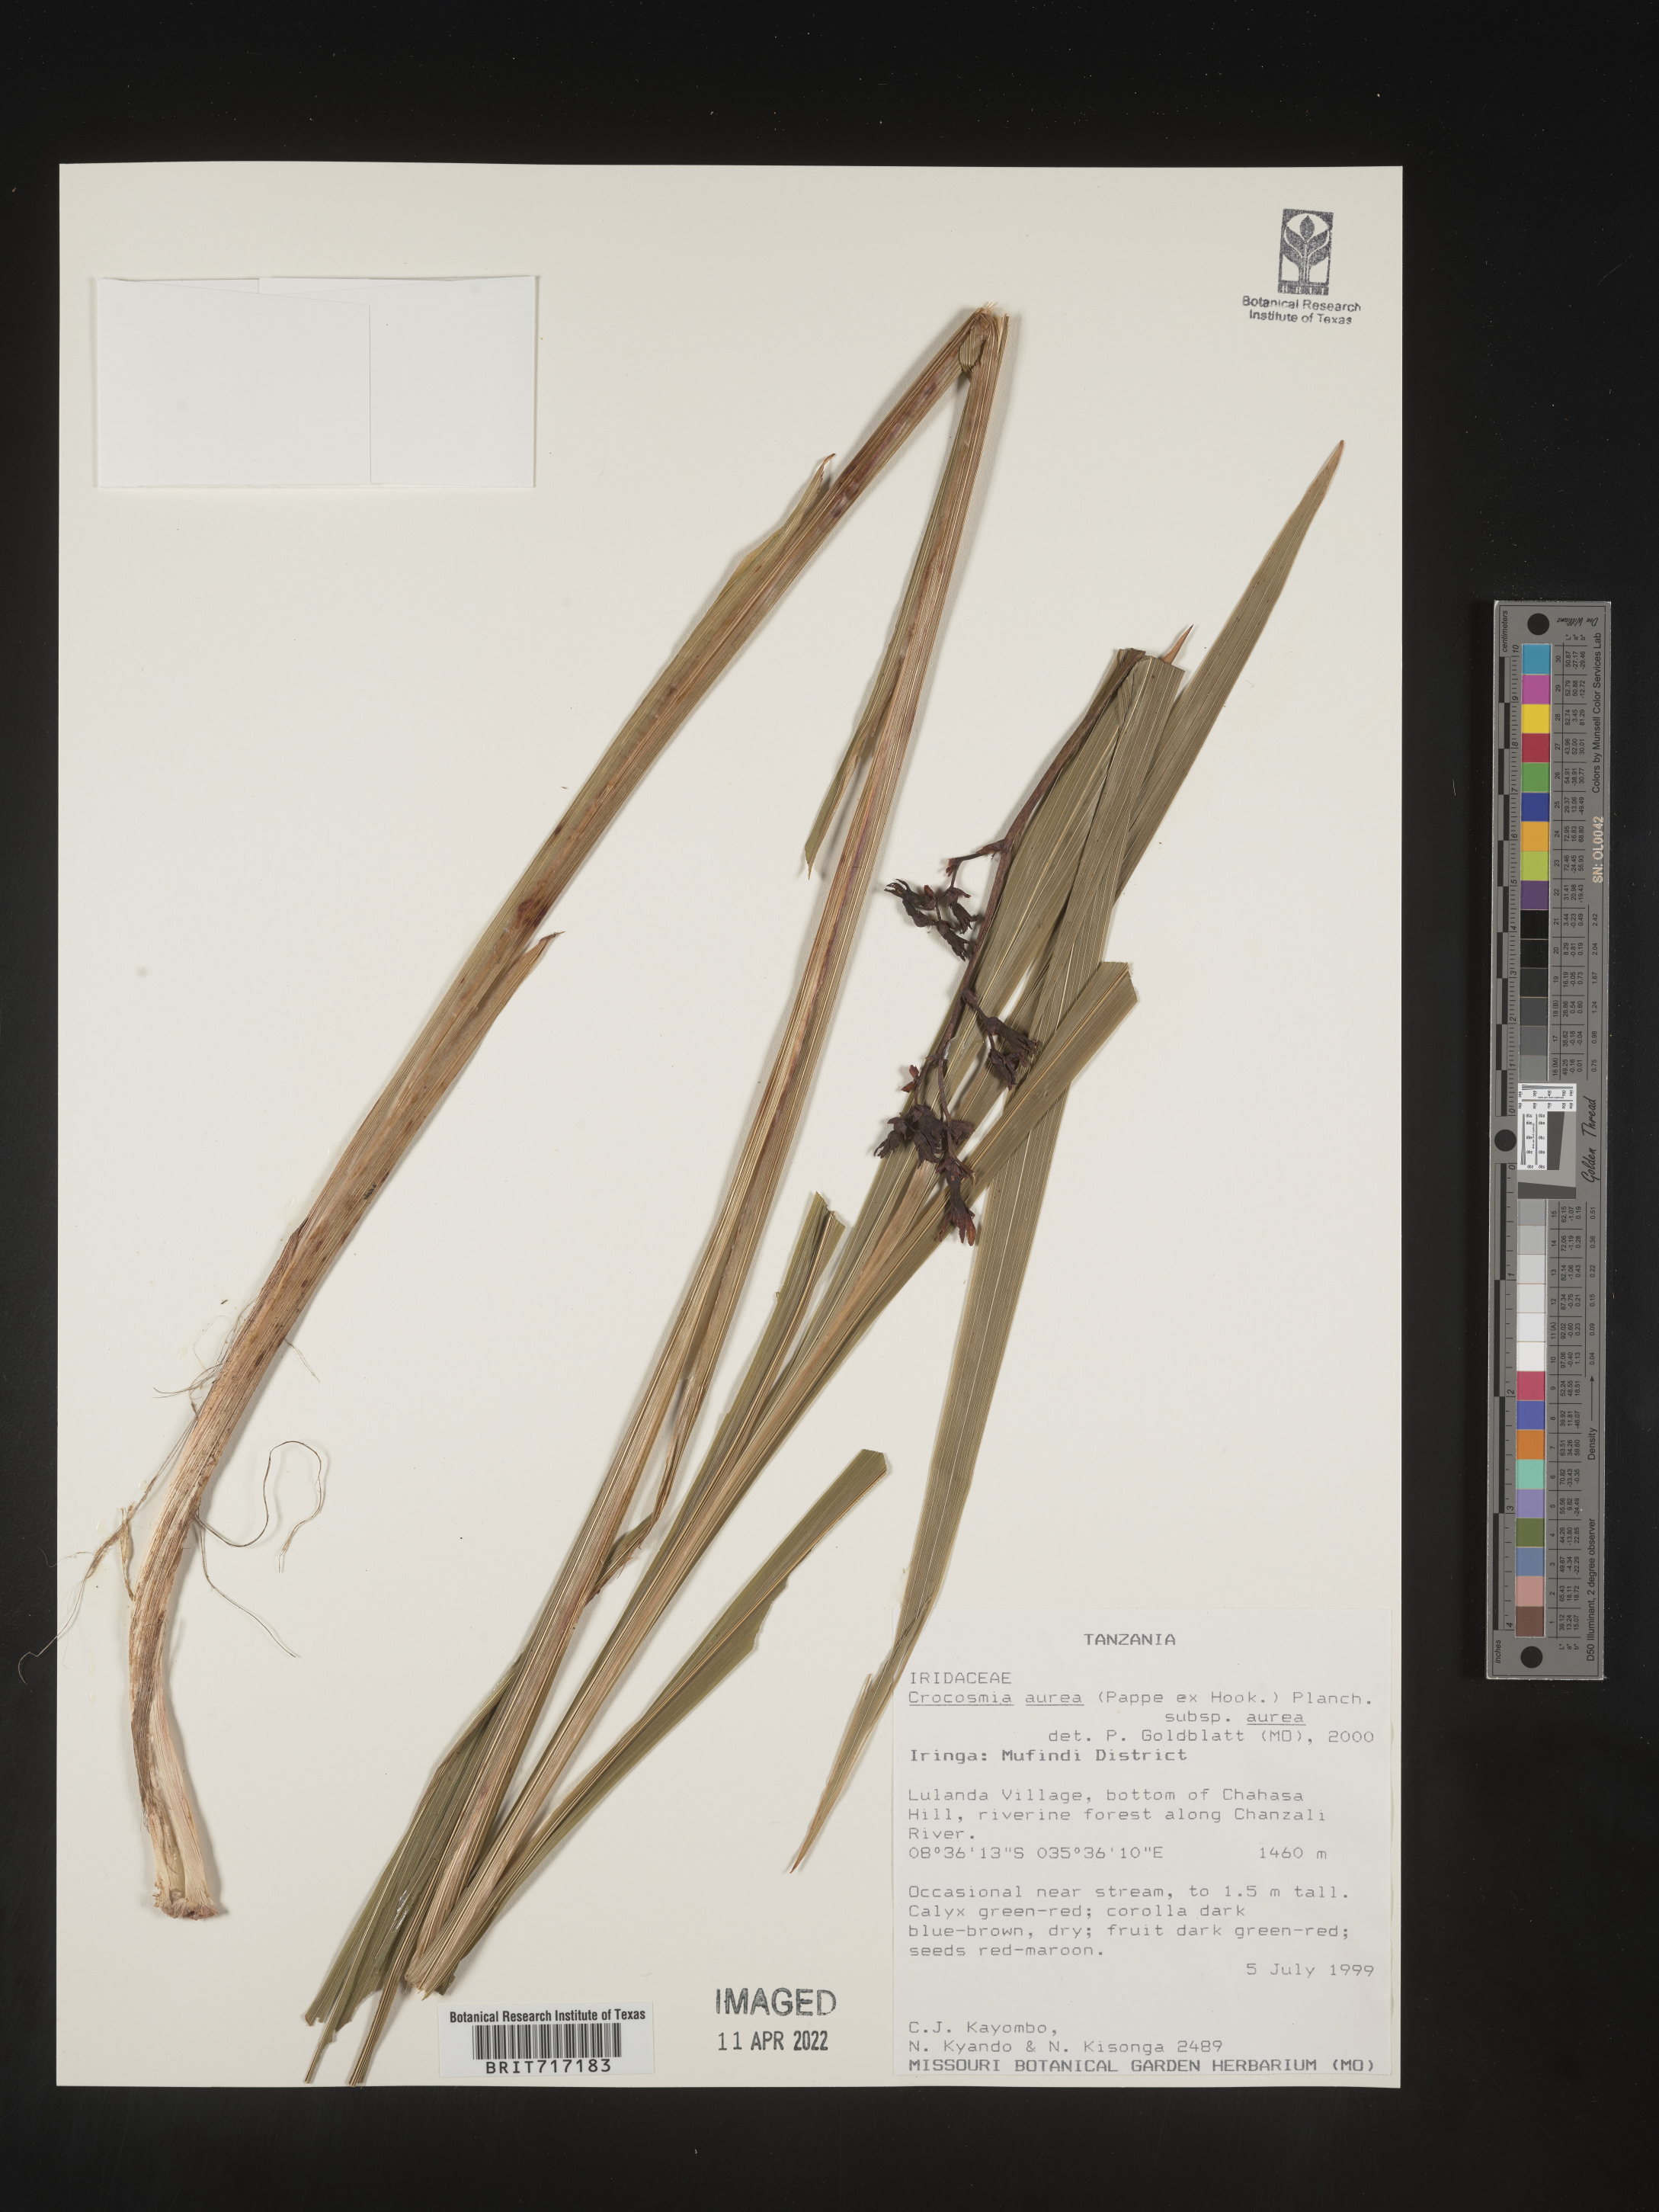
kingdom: Plantae
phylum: Tracheophyta
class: Liliopsida
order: Asparagales
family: Iridaceae
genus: Crocosmia
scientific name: Crocosmia
